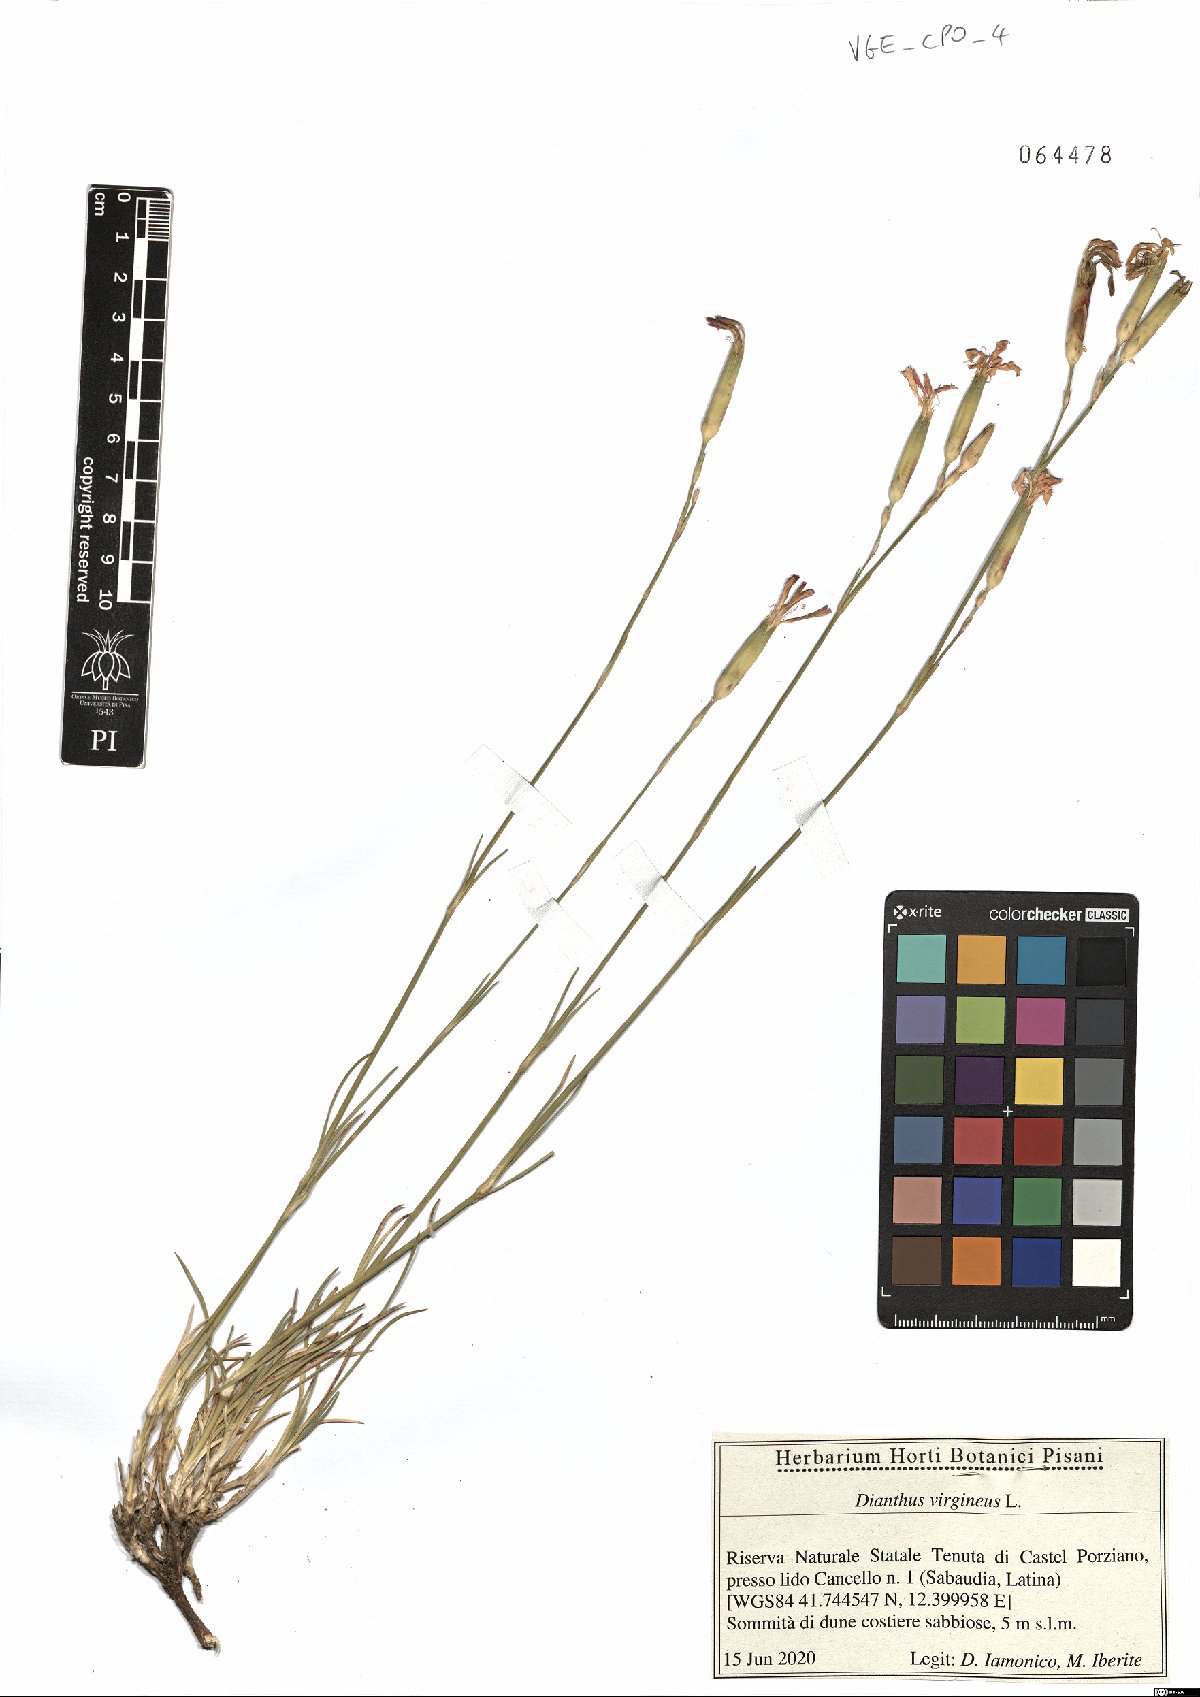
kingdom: Plantae
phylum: Tracheophyta
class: Magnoliopsida
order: Caryophyllales
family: Caryophyllaceae
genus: Dianthus
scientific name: Dianthus virgineus
